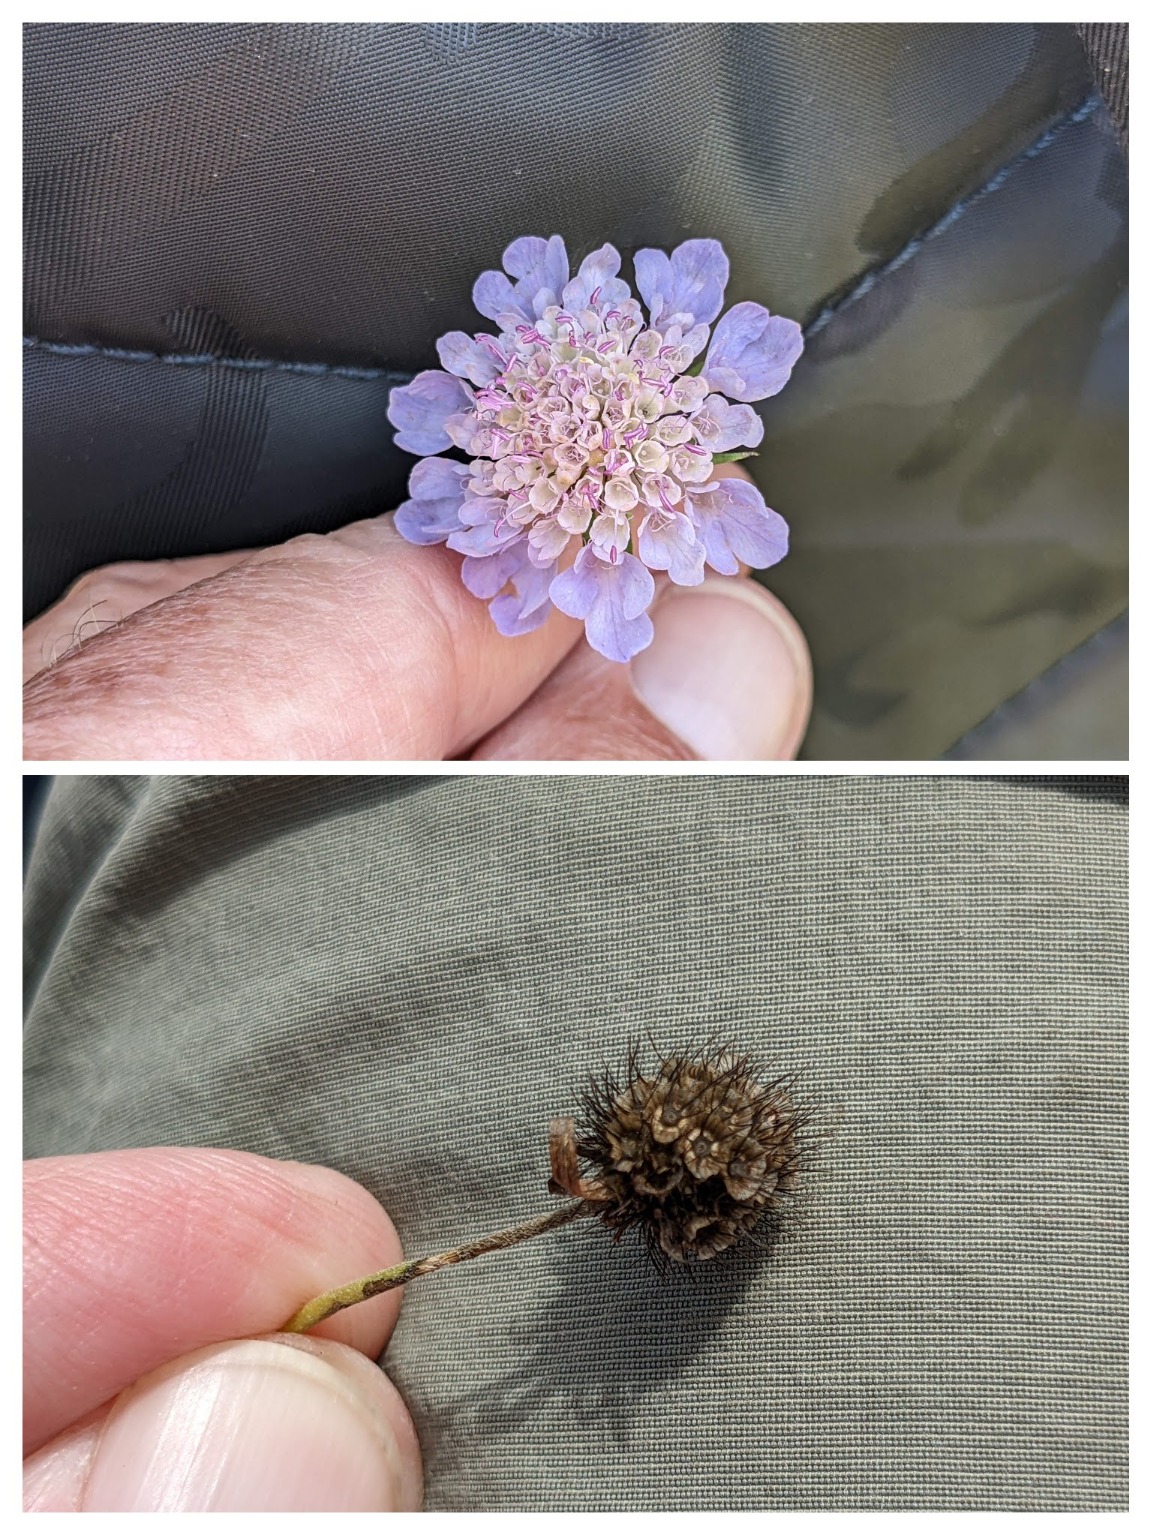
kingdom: Plantae
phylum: Tracheophyta
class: Magnoliopsida
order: Dipsacales
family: Caprifoliaceae
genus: Scabiosa
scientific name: Scabiosa columbaria
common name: Due-skabiose
